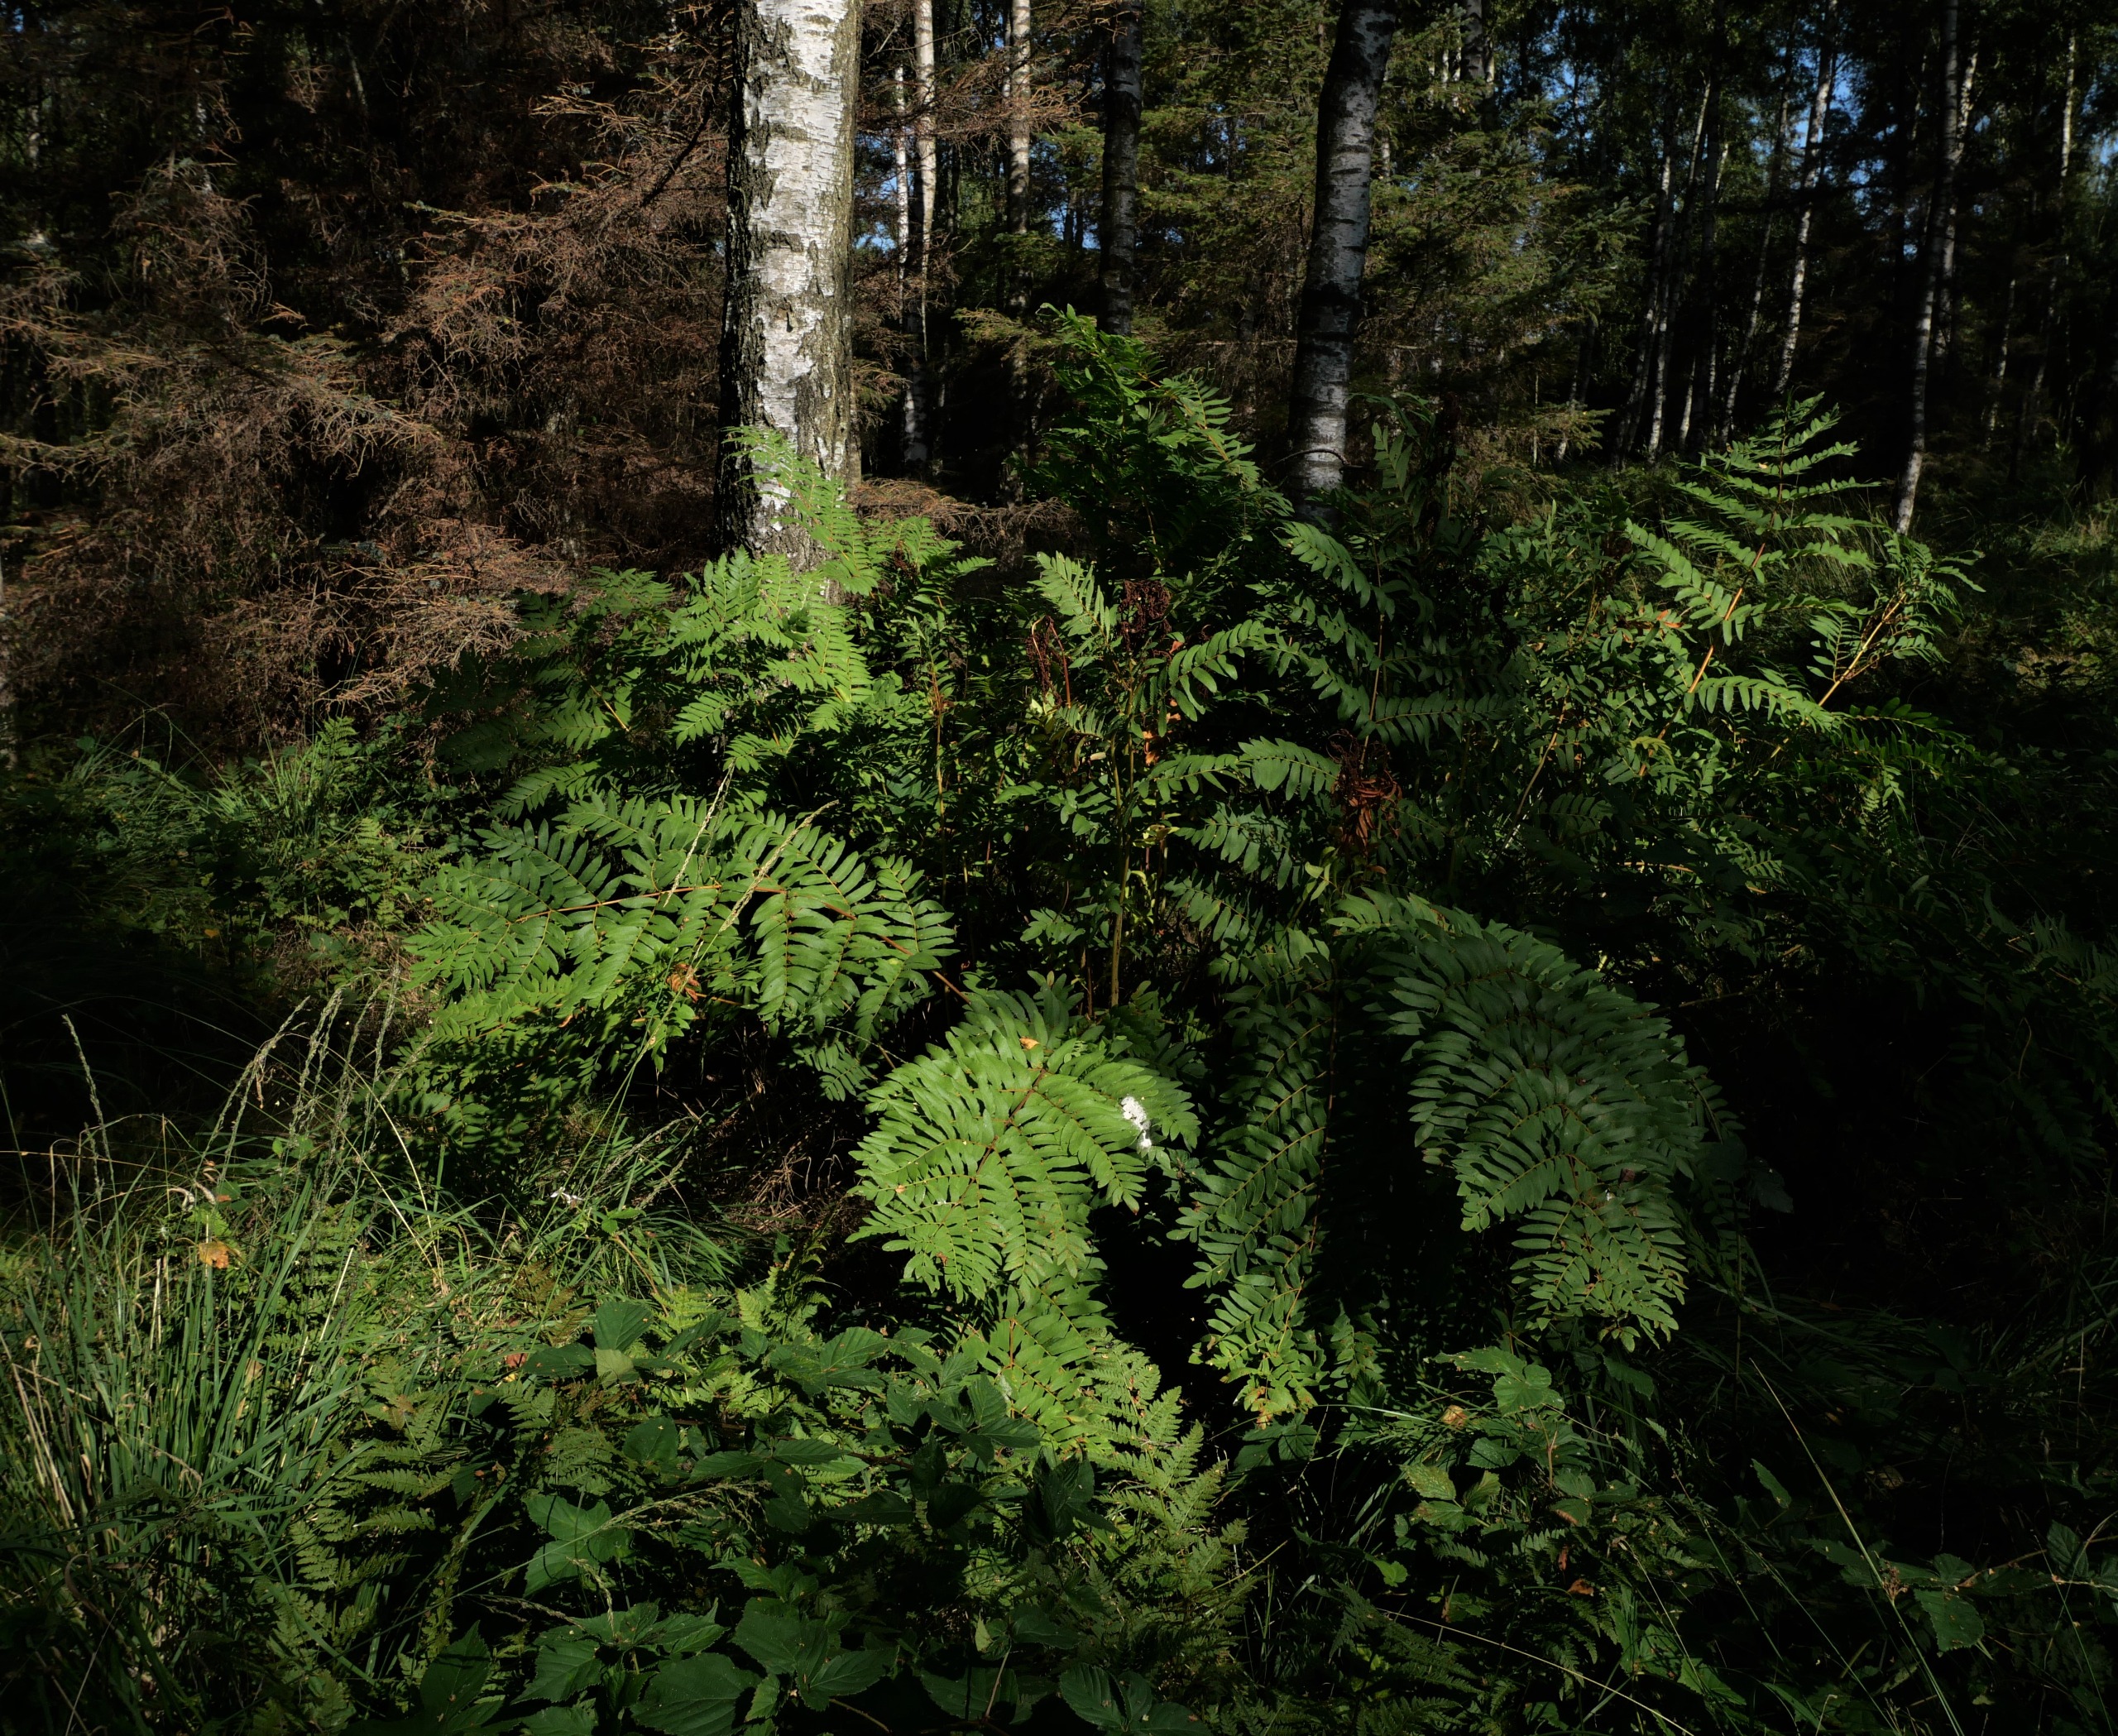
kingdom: Plantae
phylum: Tracheophyta
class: Polypodiopsida
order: Osmundales
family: Osmundaceae
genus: Osmunda
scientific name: Osmunda regalis
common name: Kongebregne
